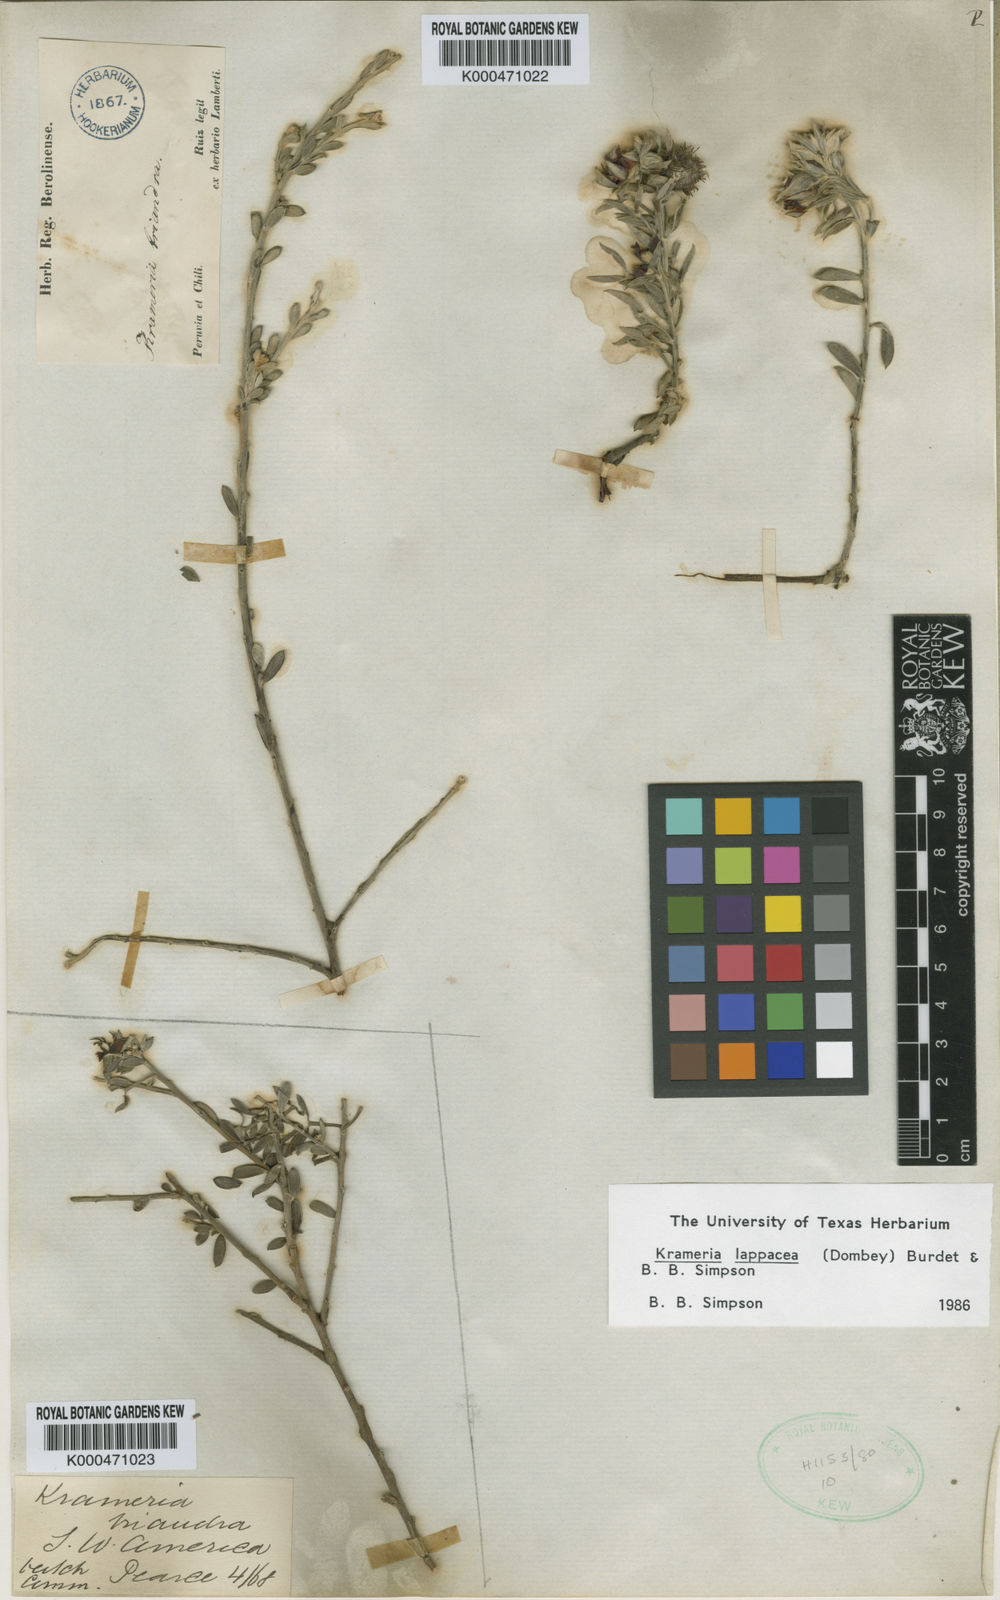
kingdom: Plantae
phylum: Tracheophyta
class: Magnoliopsida
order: Zygophyllales
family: Krameriaceae
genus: Krameria
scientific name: Krameria lappacea
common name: Rhatany
